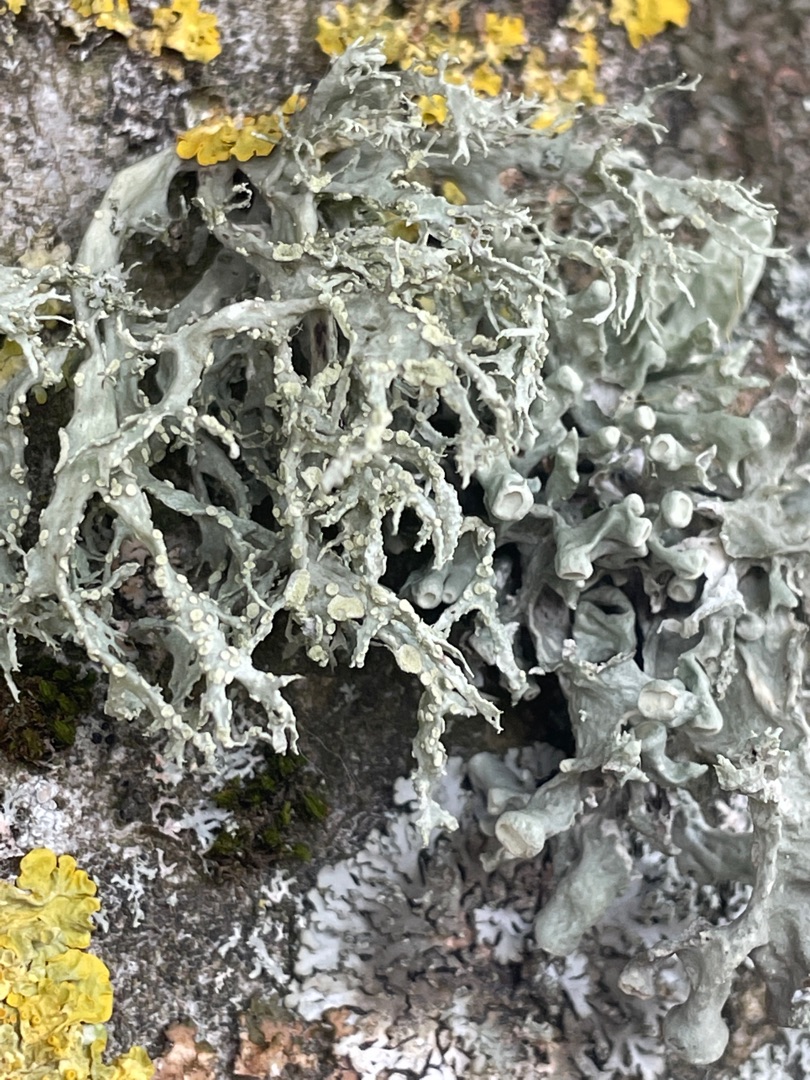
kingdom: Fungi
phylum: Ascomycota
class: Lecanoromycetes
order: Lecanorales
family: Ramalinaceae
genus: Ramalina
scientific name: Ramalina fastigiata
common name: Tue-grenlav
